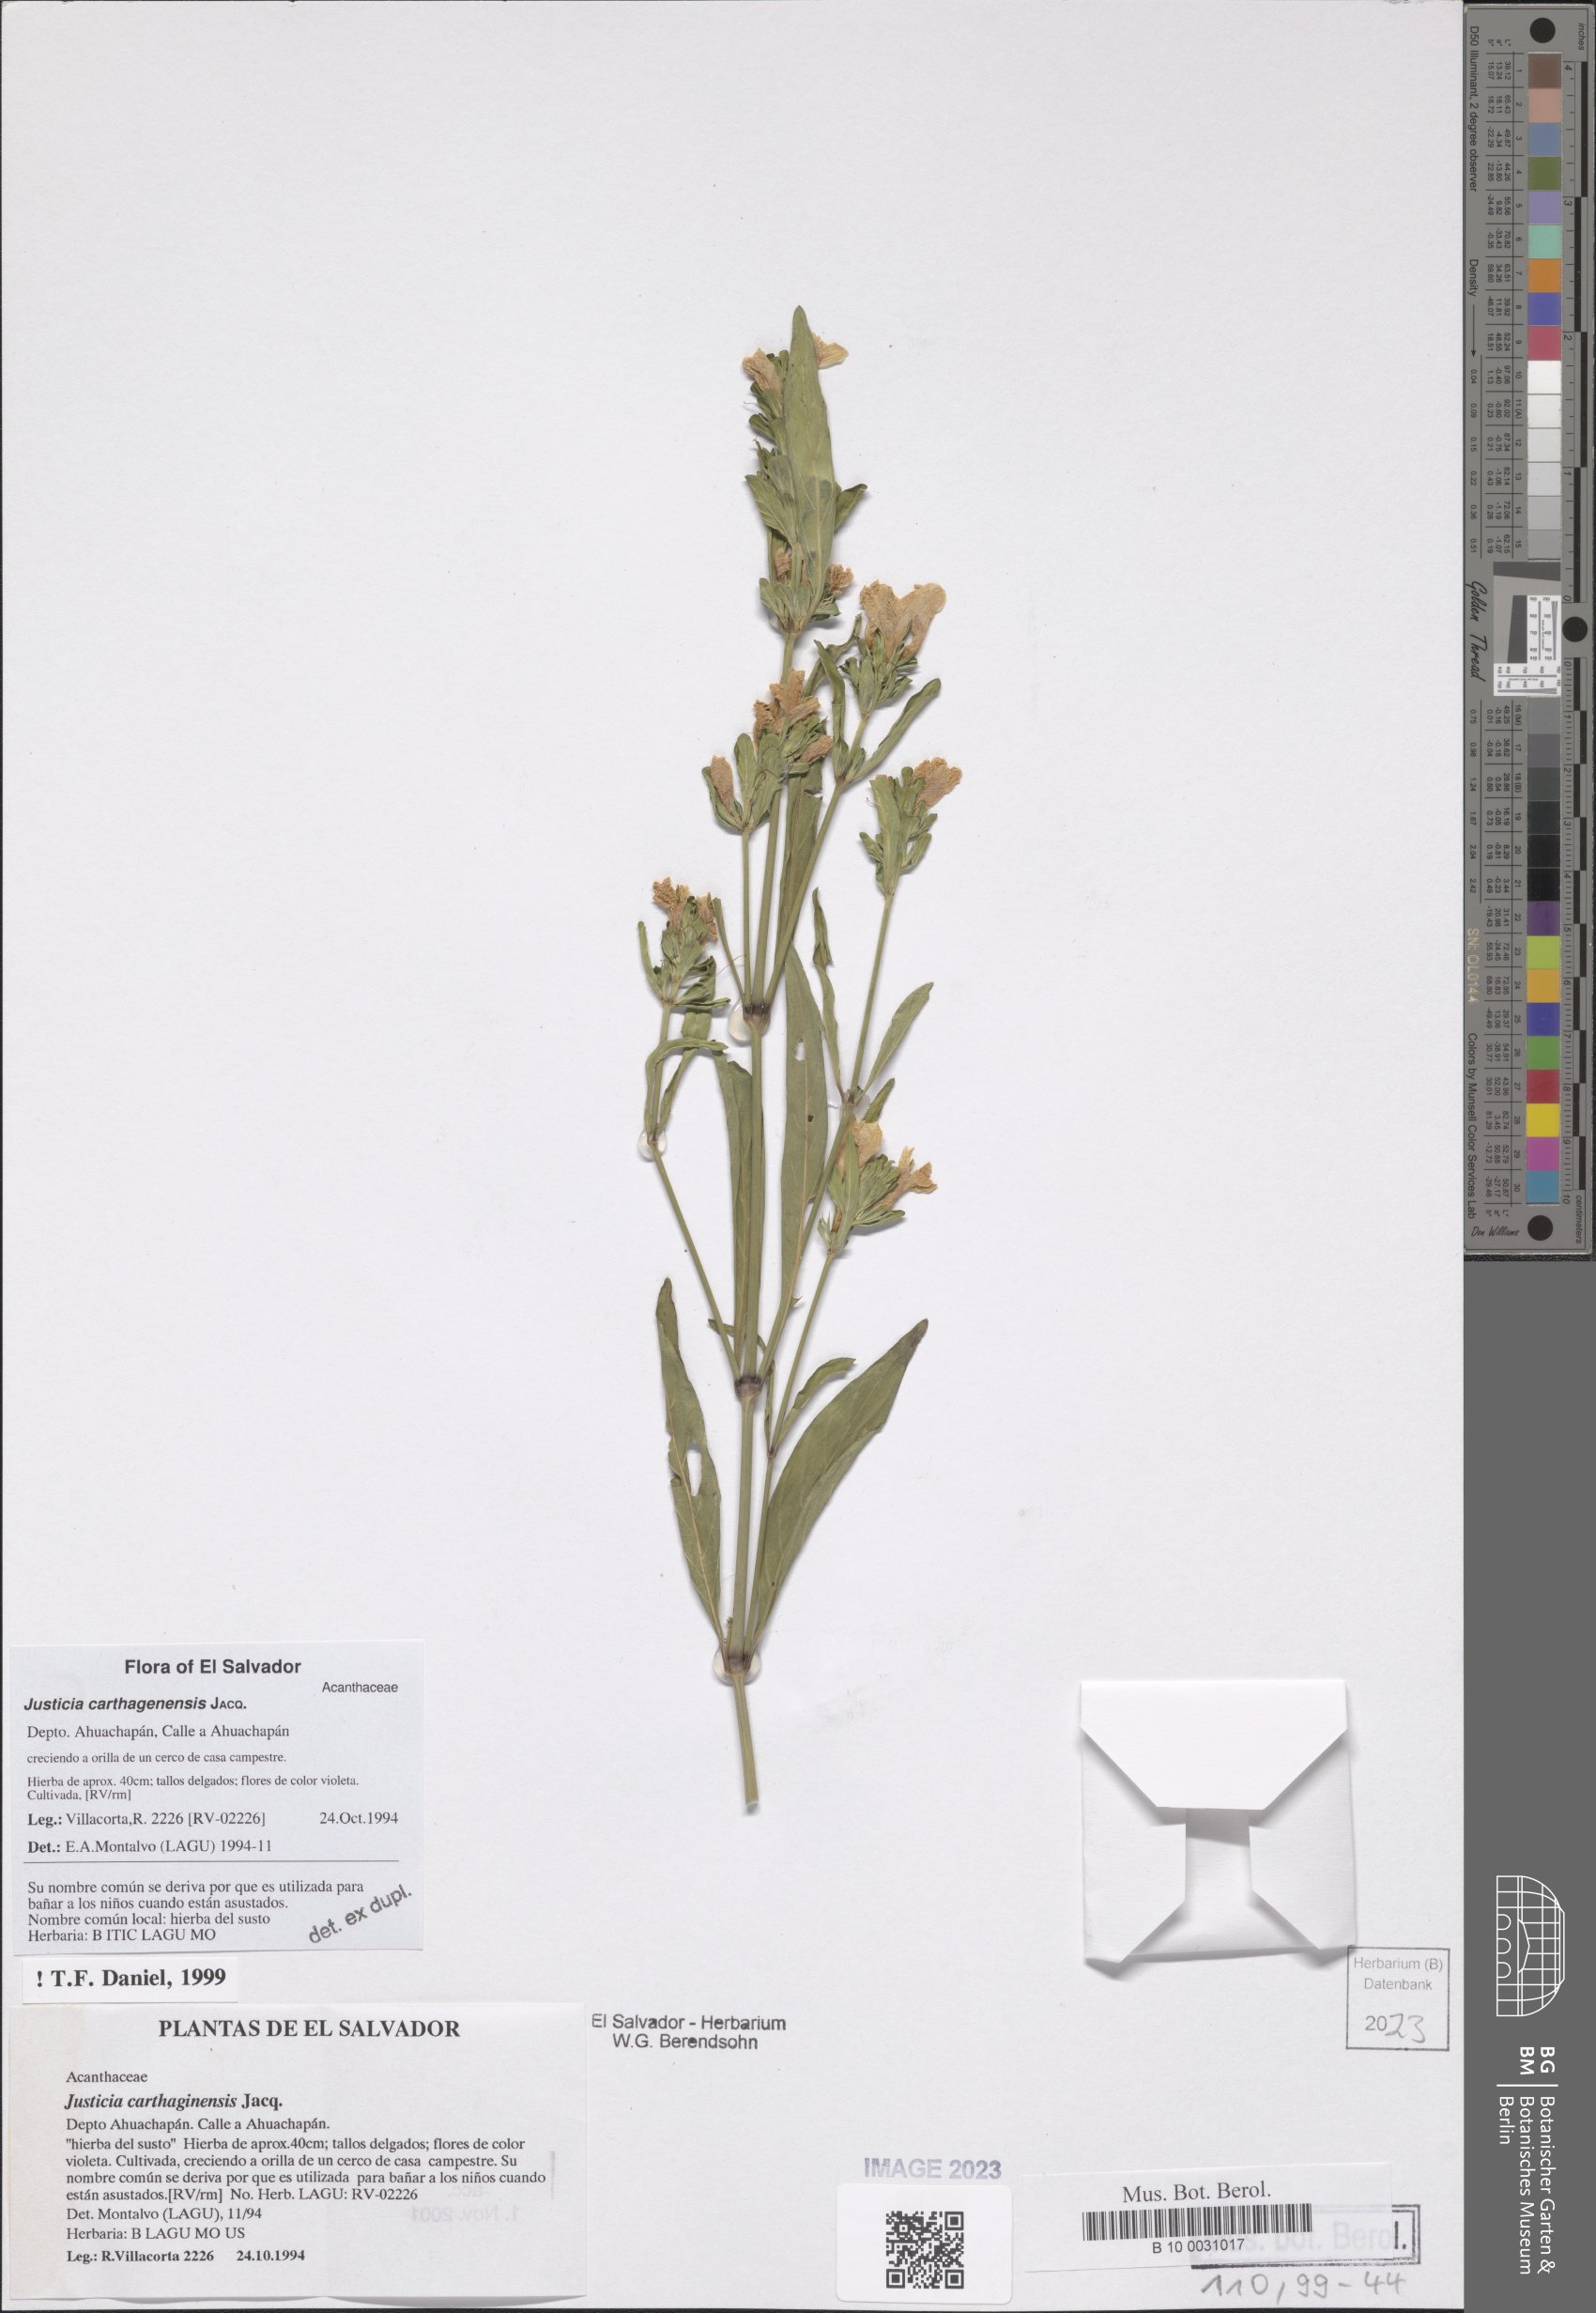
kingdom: Plantae
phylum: Tracheophyta
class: Magnoliopsida
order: Lamiales
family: Acanthaceae
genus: Justicia
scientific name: Justicia carthagenensis
